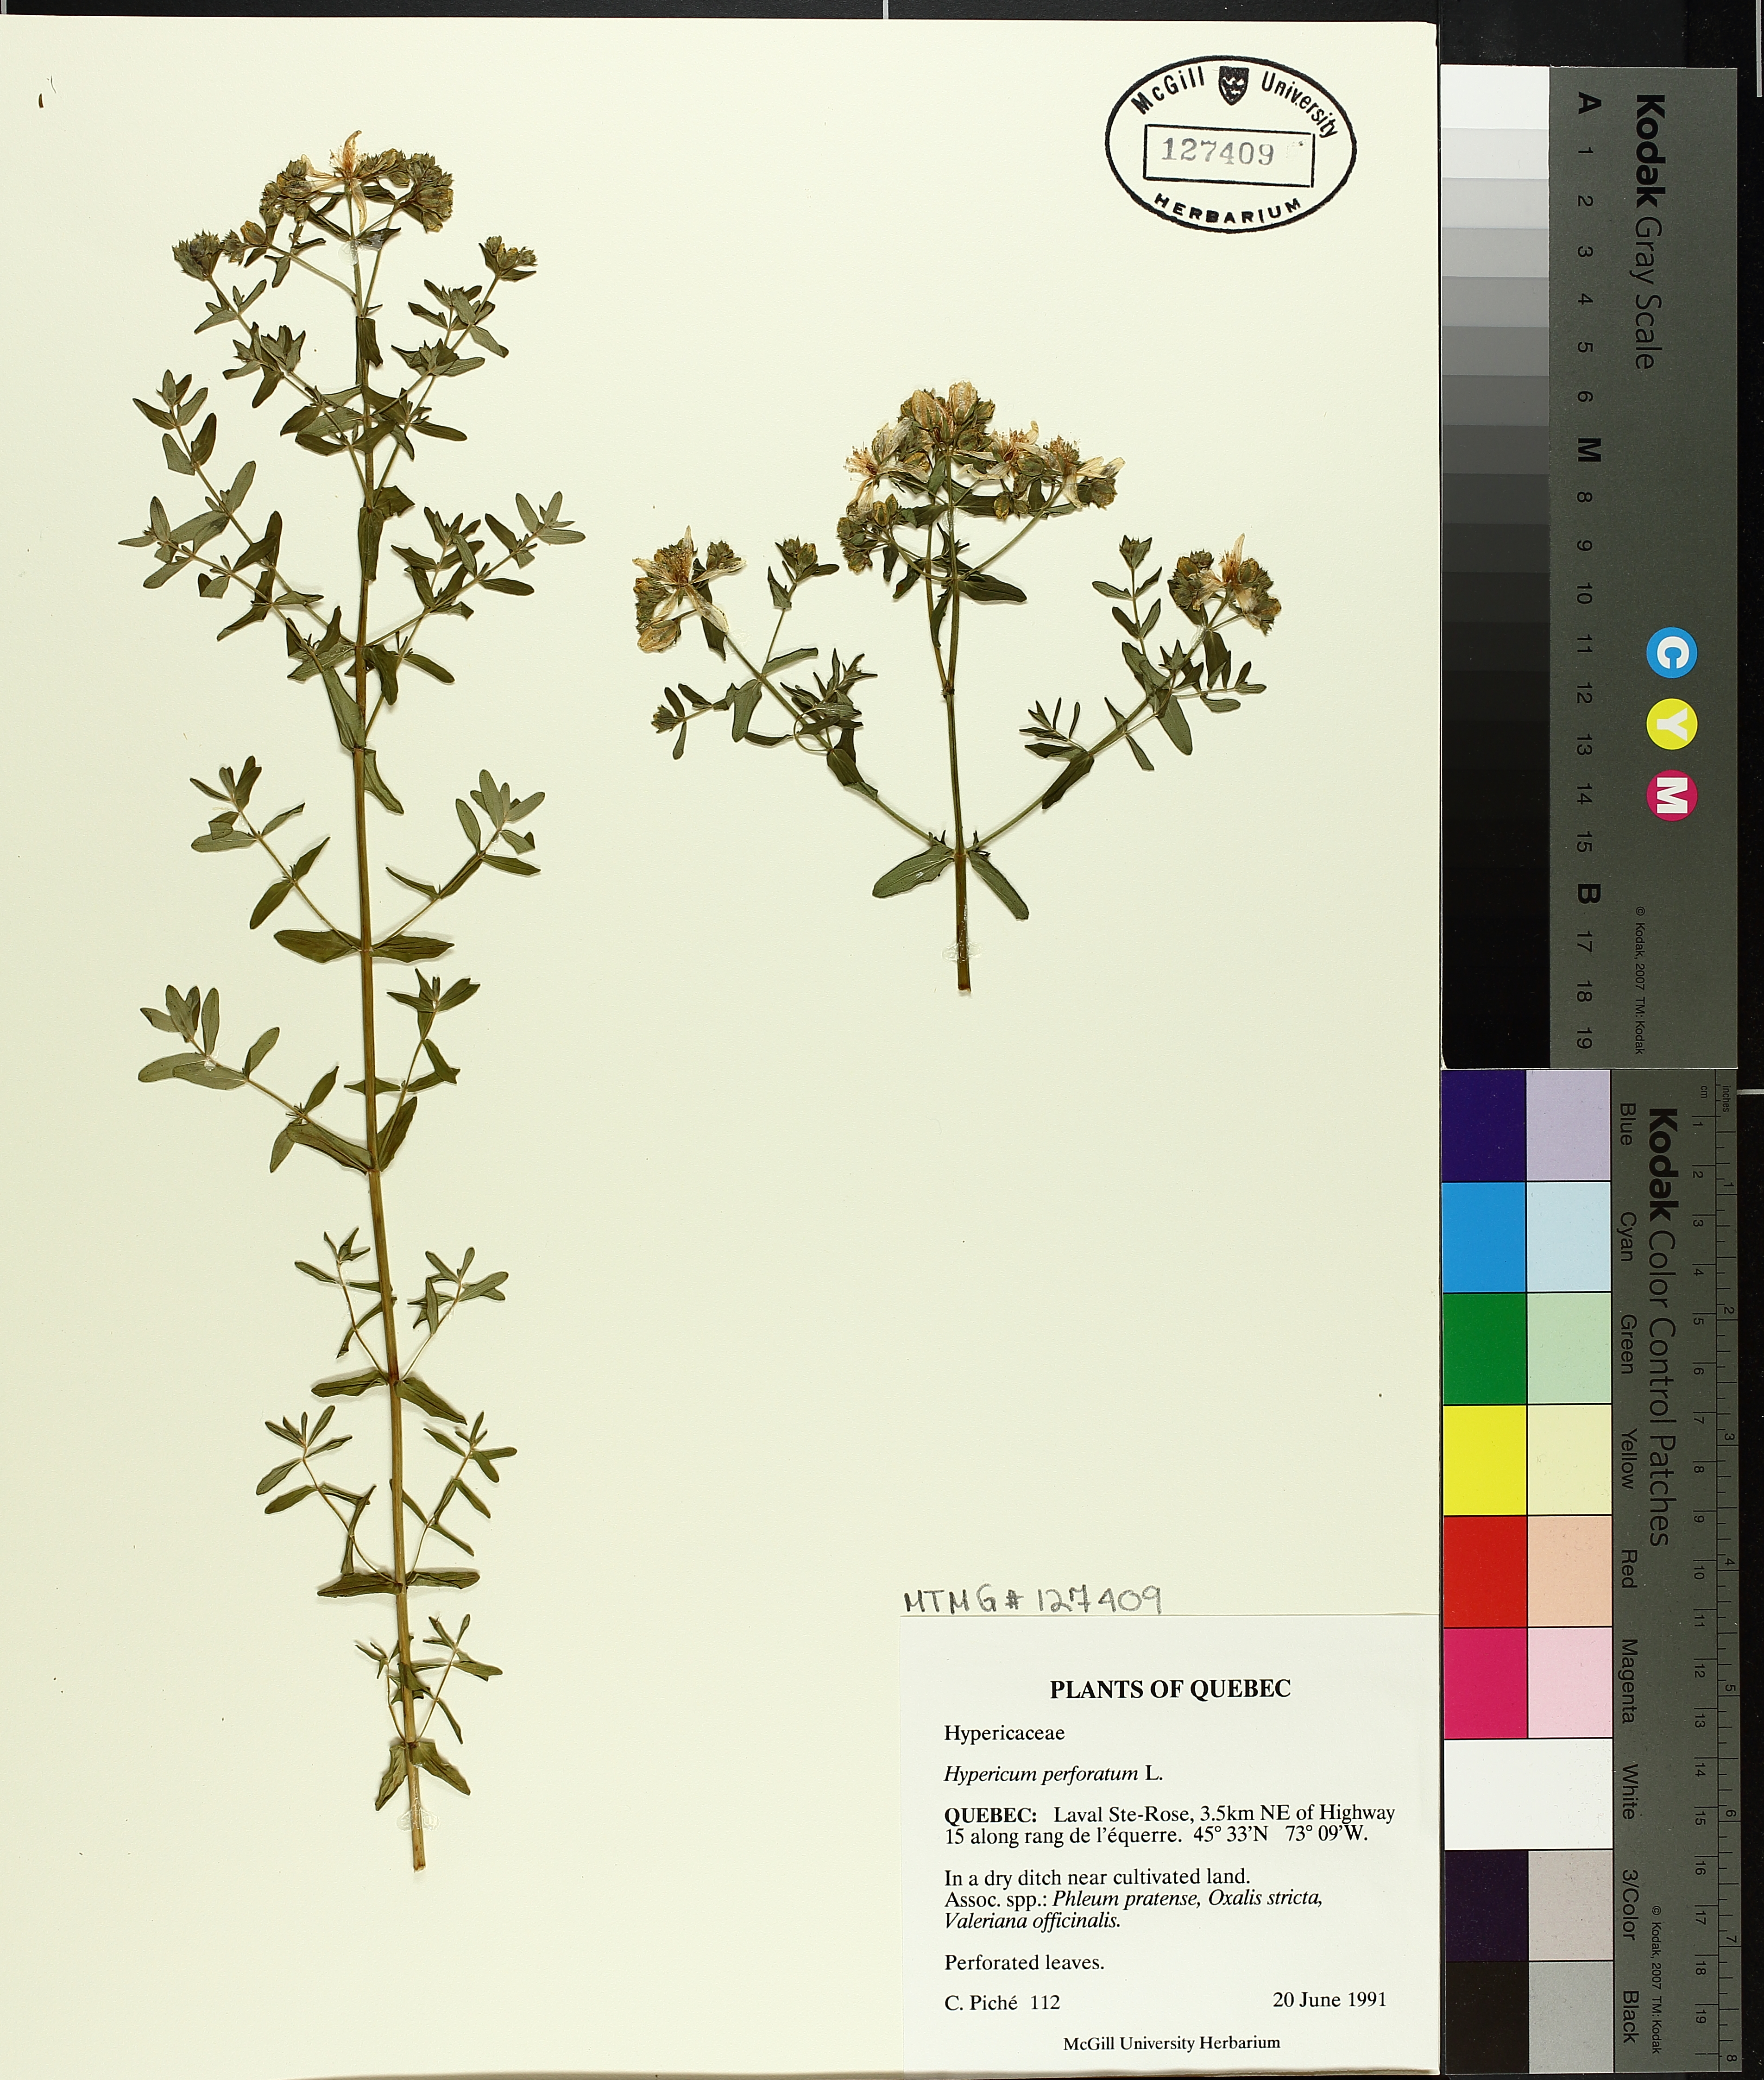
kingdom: Plantae
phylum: Tracheophyta
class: Magnoliopsida
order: Malpighiales
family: Hypericaceae
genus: Hypericum
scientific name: Hypericum perforatum
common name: Common st. johnswort
